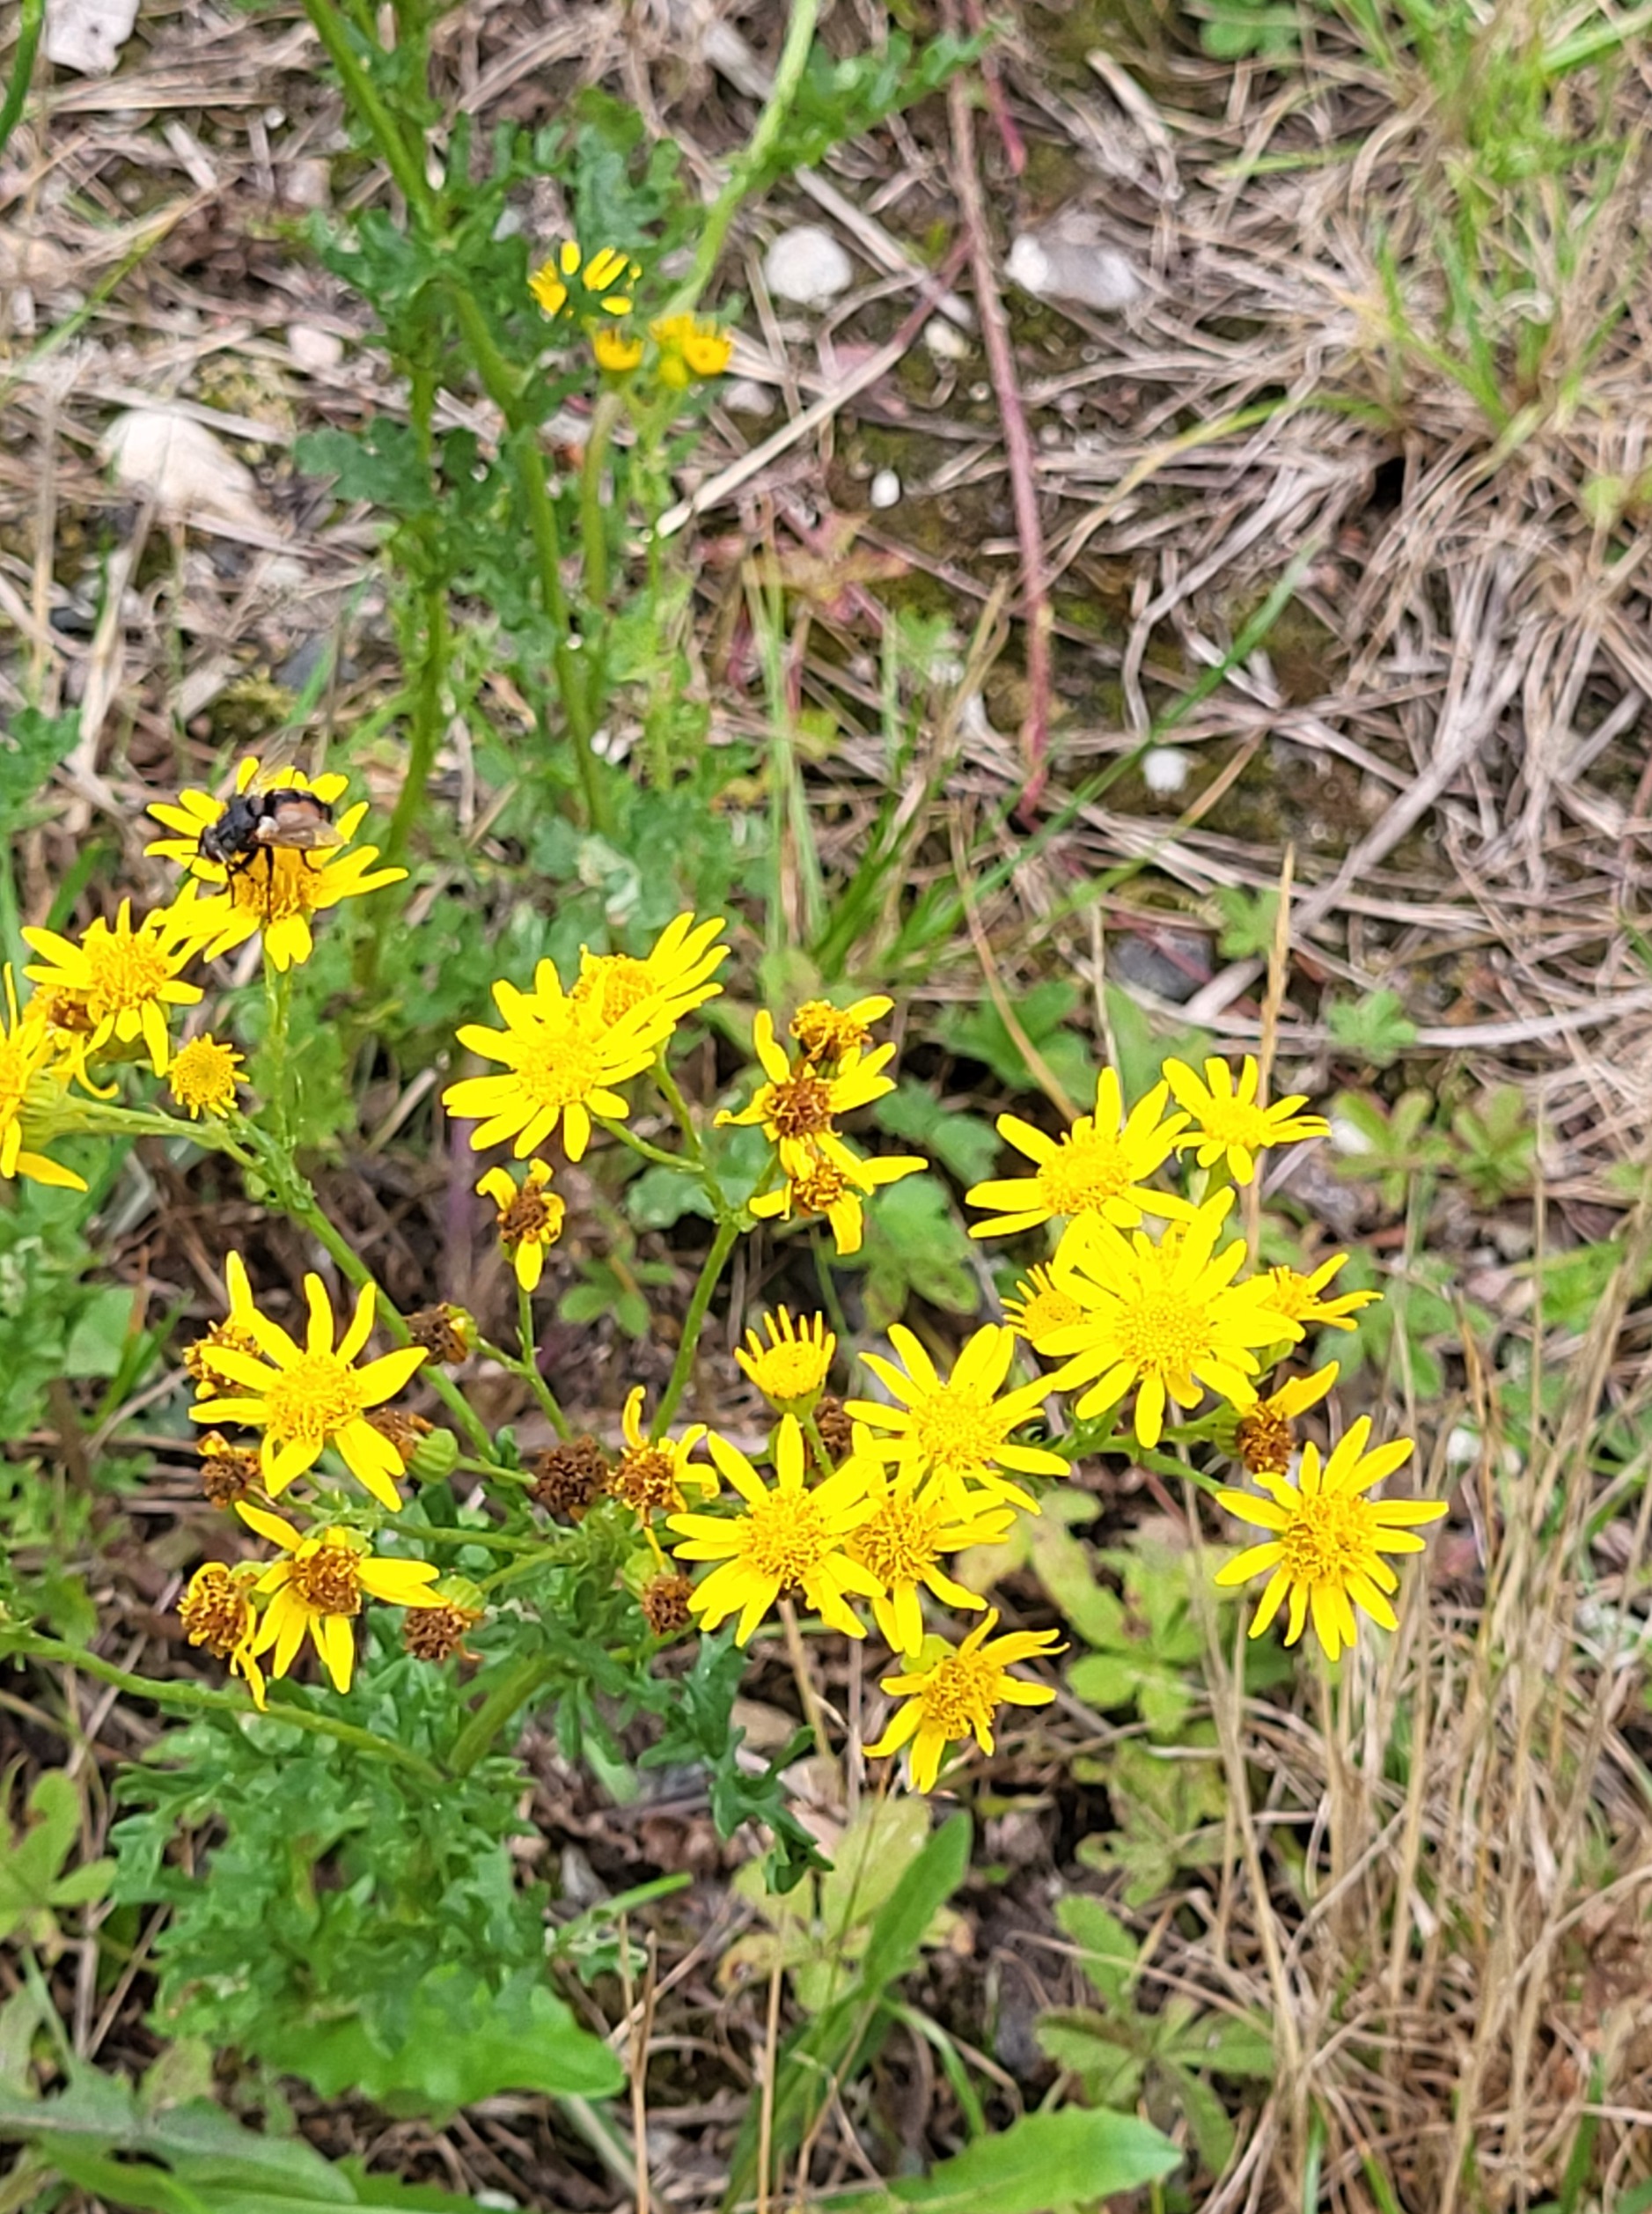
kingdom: Plantae
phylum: Tracheophyta
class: Magnoliopsida
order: Asterales
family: Asteraceae
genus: Jacobaea
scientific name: Jacobaea vulgaris
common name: Eng-brandbæger
